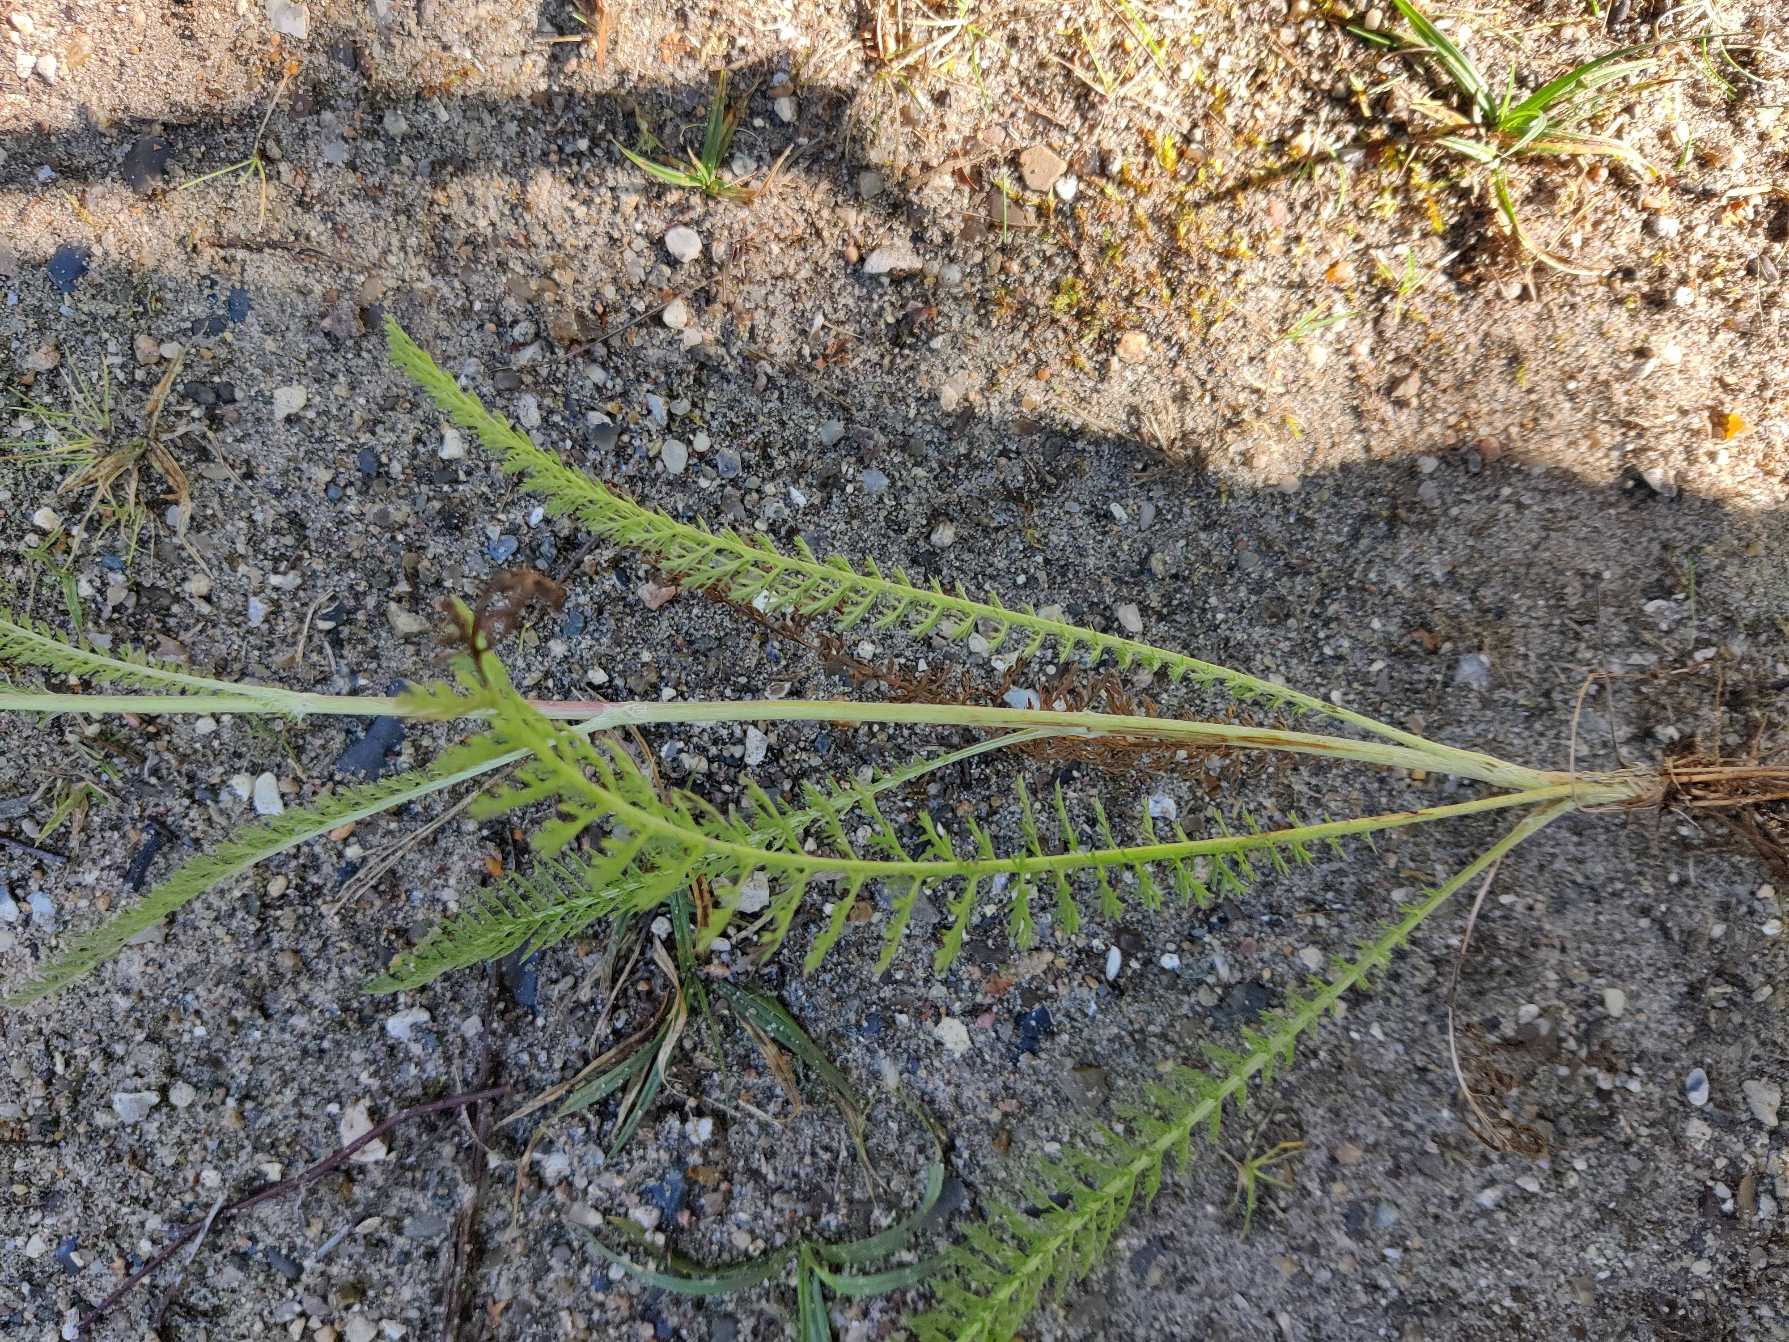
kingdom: Plantae
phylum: Tracheophyta
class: Magnoliopsida
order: Asterales
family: Asteraceae
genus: Achillea
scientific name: Achillea millefolium
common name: Almindelig røllike
